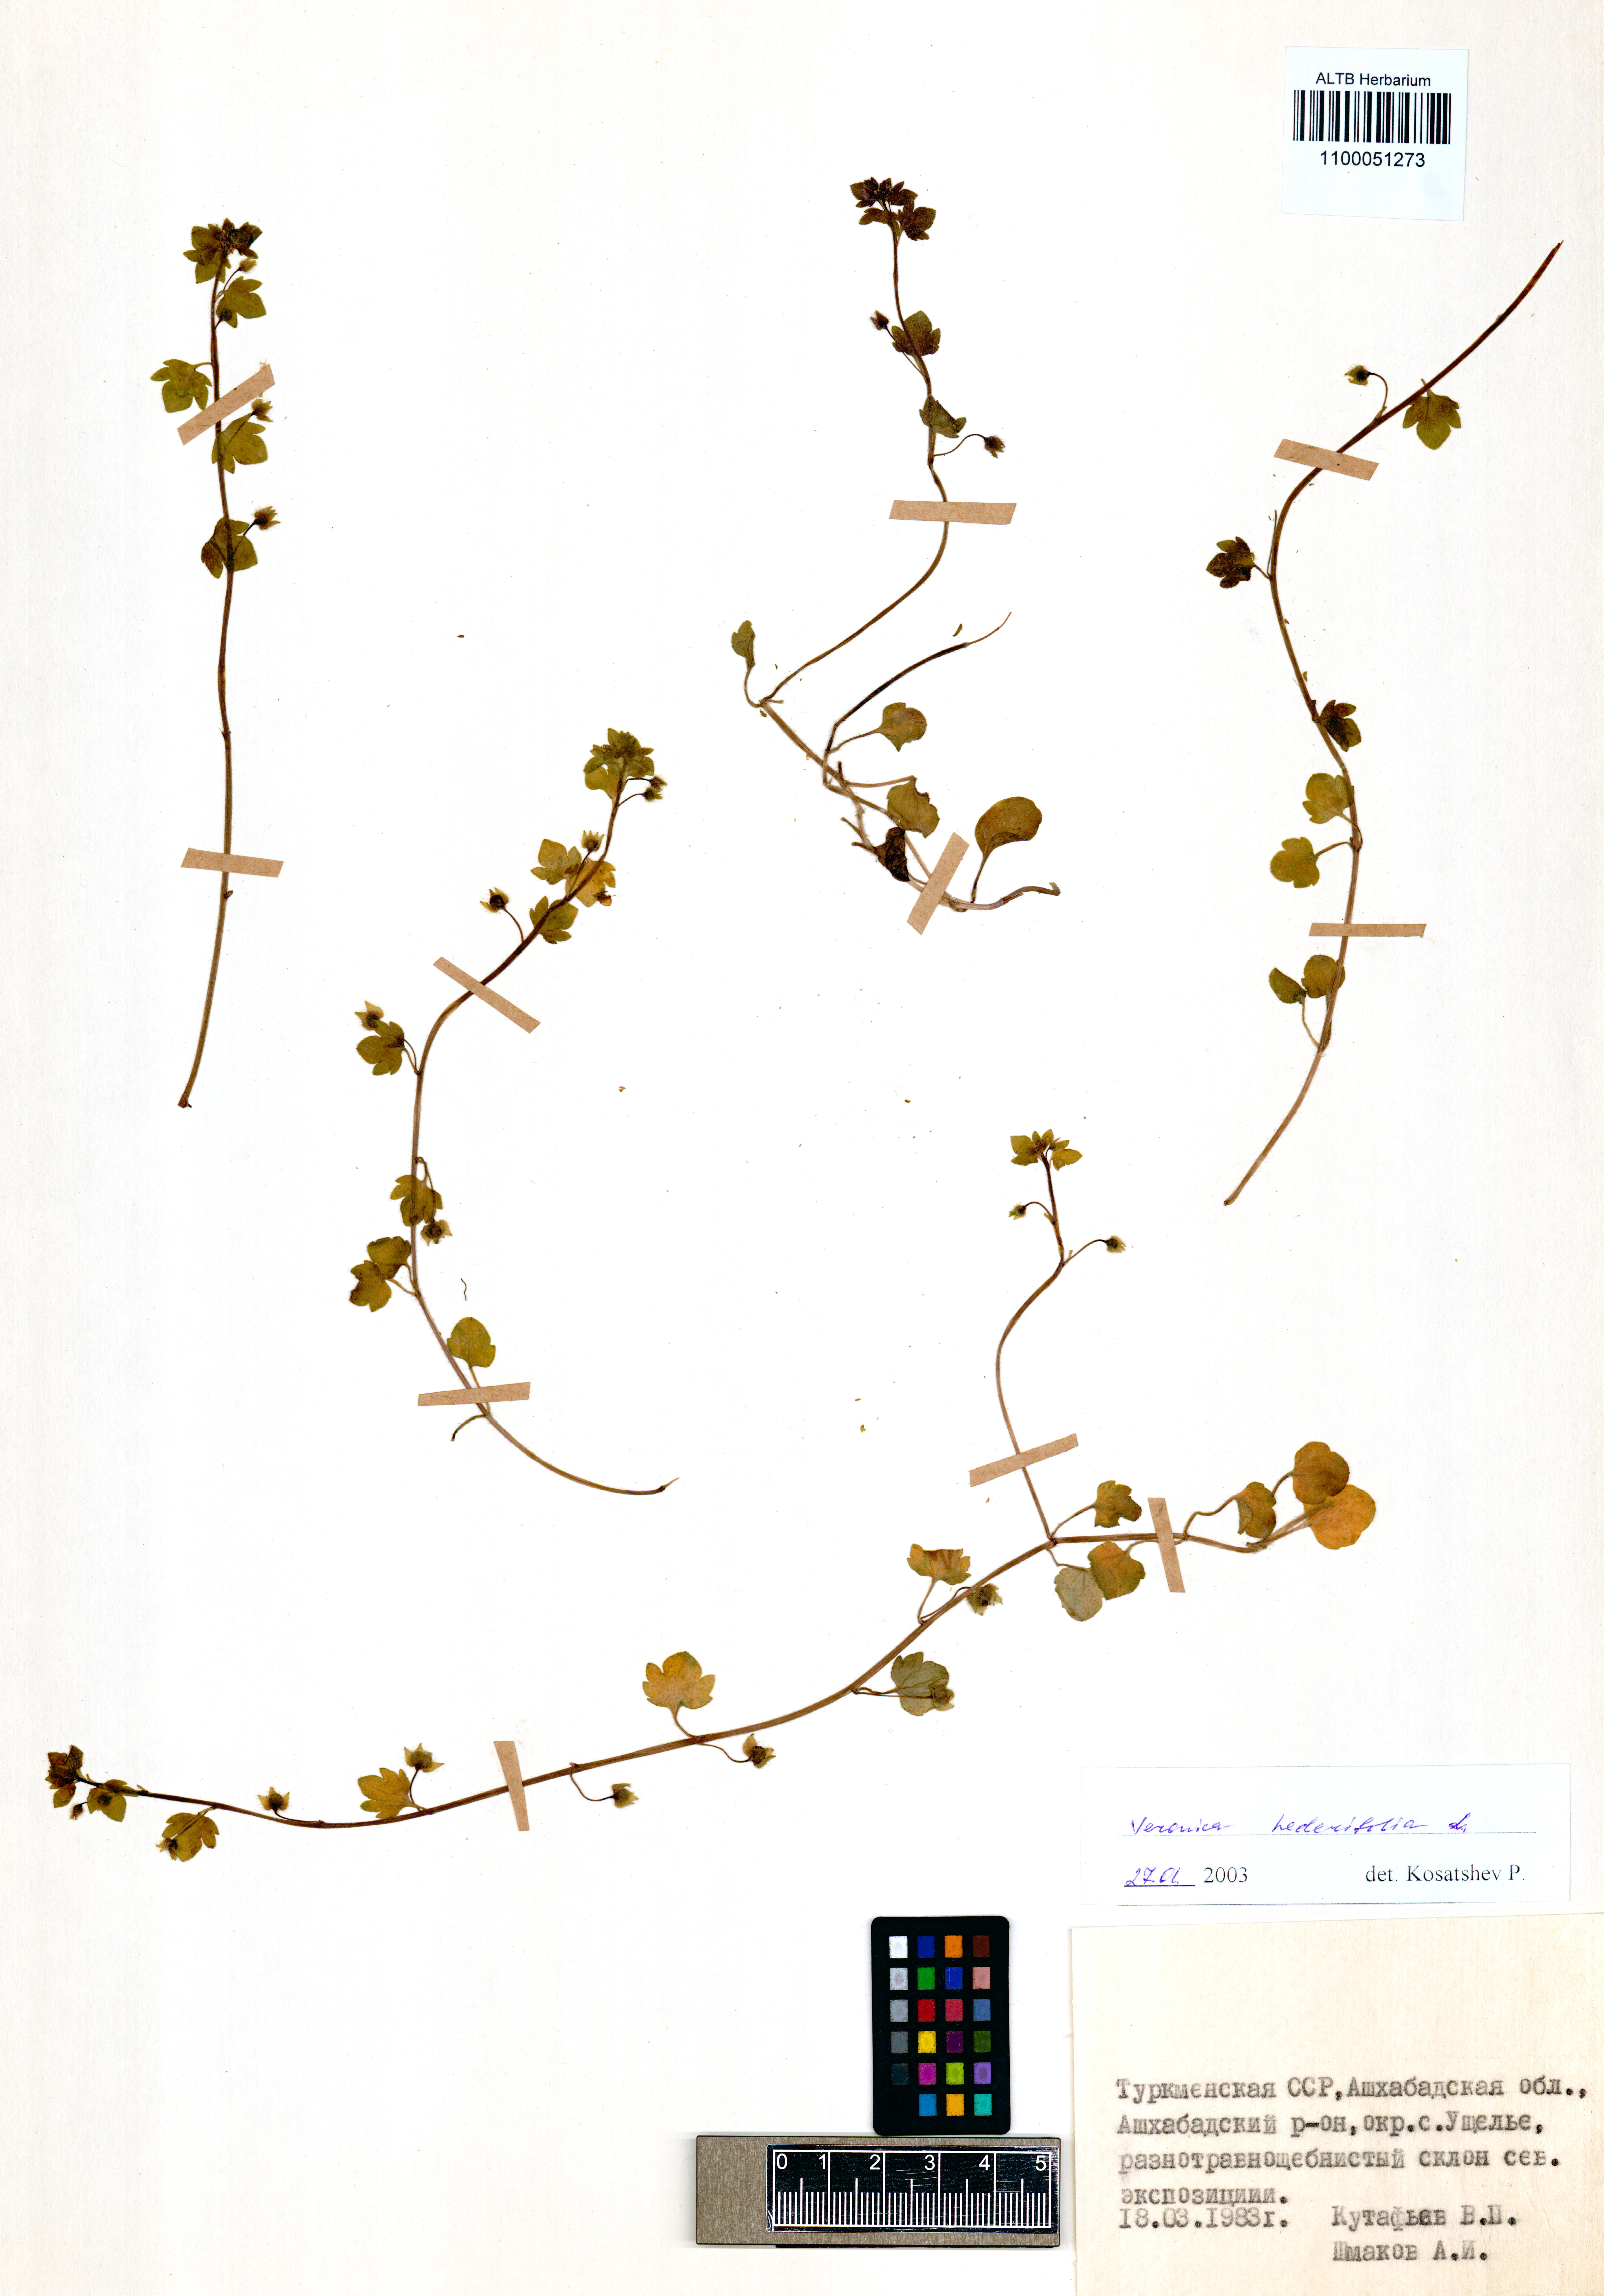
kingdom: Plantae
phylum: Tracheophyta
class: Magnoliopsida
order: Lamiales
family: Plantaginaceae
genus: Veronica
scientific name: Veronica hederifolia
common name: Ivy-leaved speedwell
